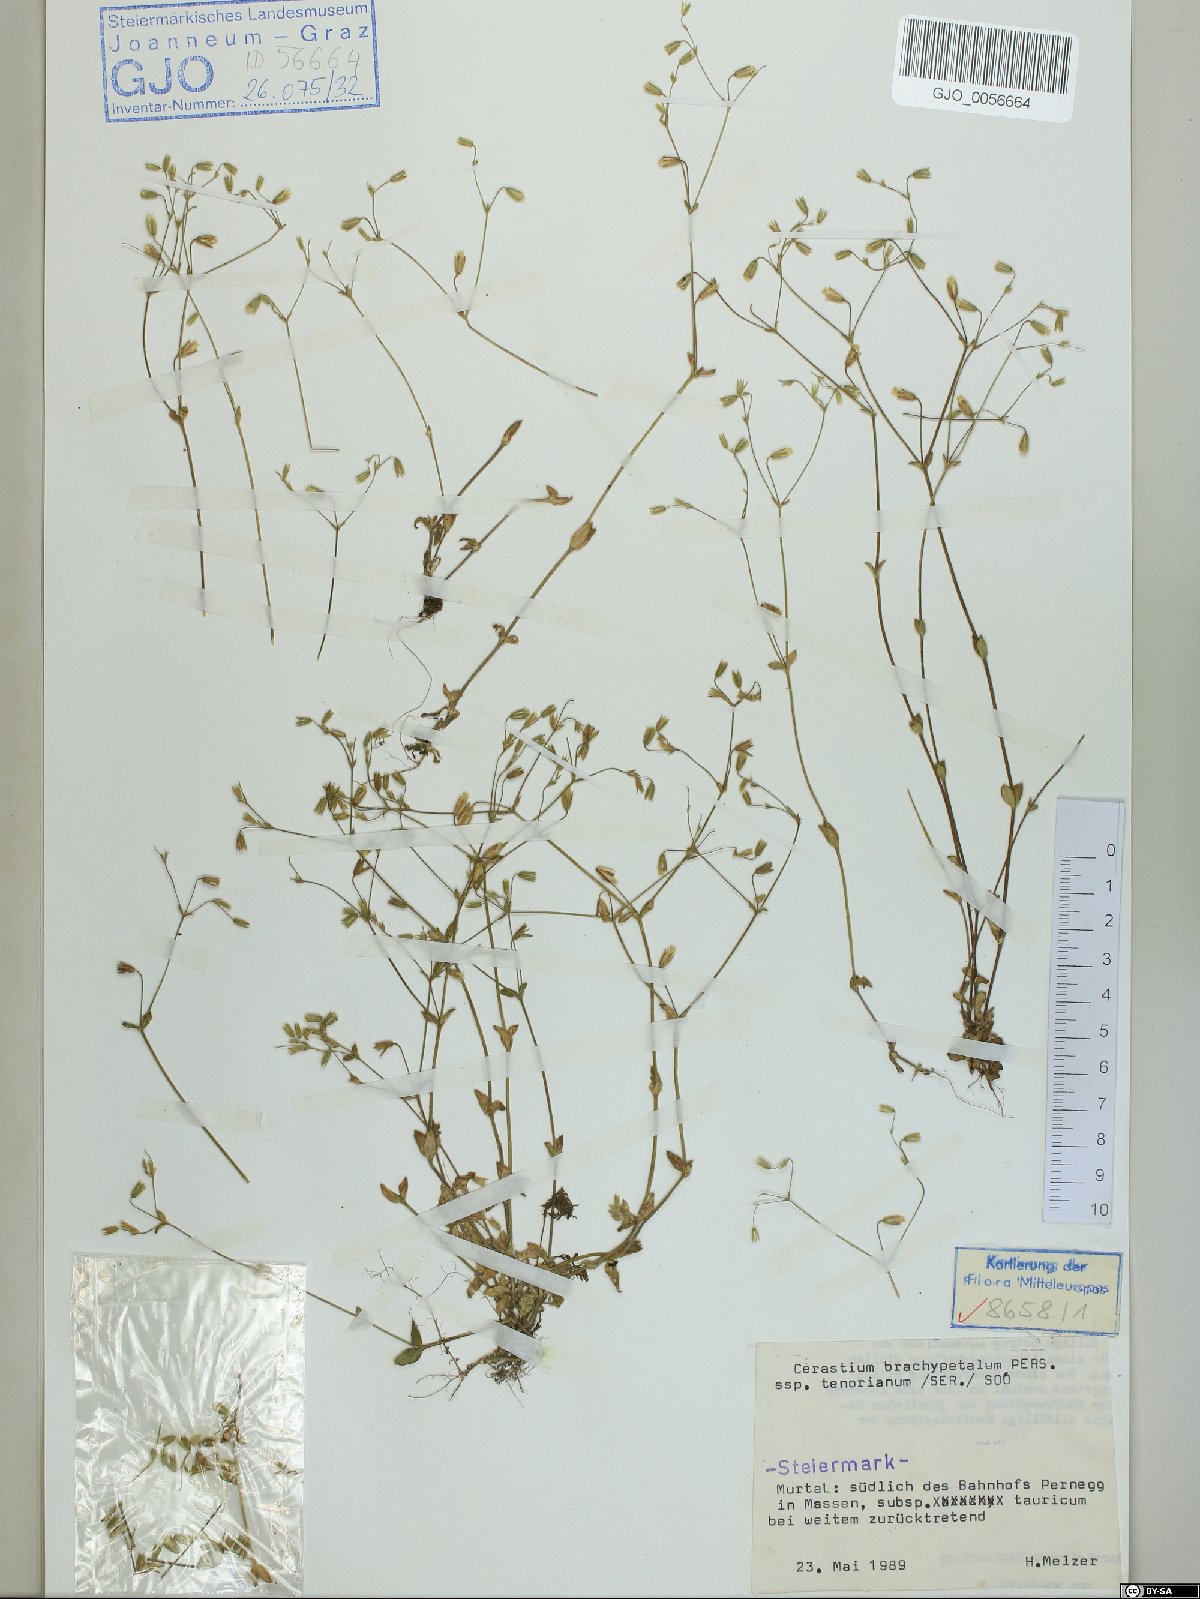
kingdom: Plantae
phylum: Tracheophyta
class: Magnoliopsida
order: Caryophyllales
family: Caryophyllaceae
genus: Cerastium
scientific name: Cerastium tenoreanum
